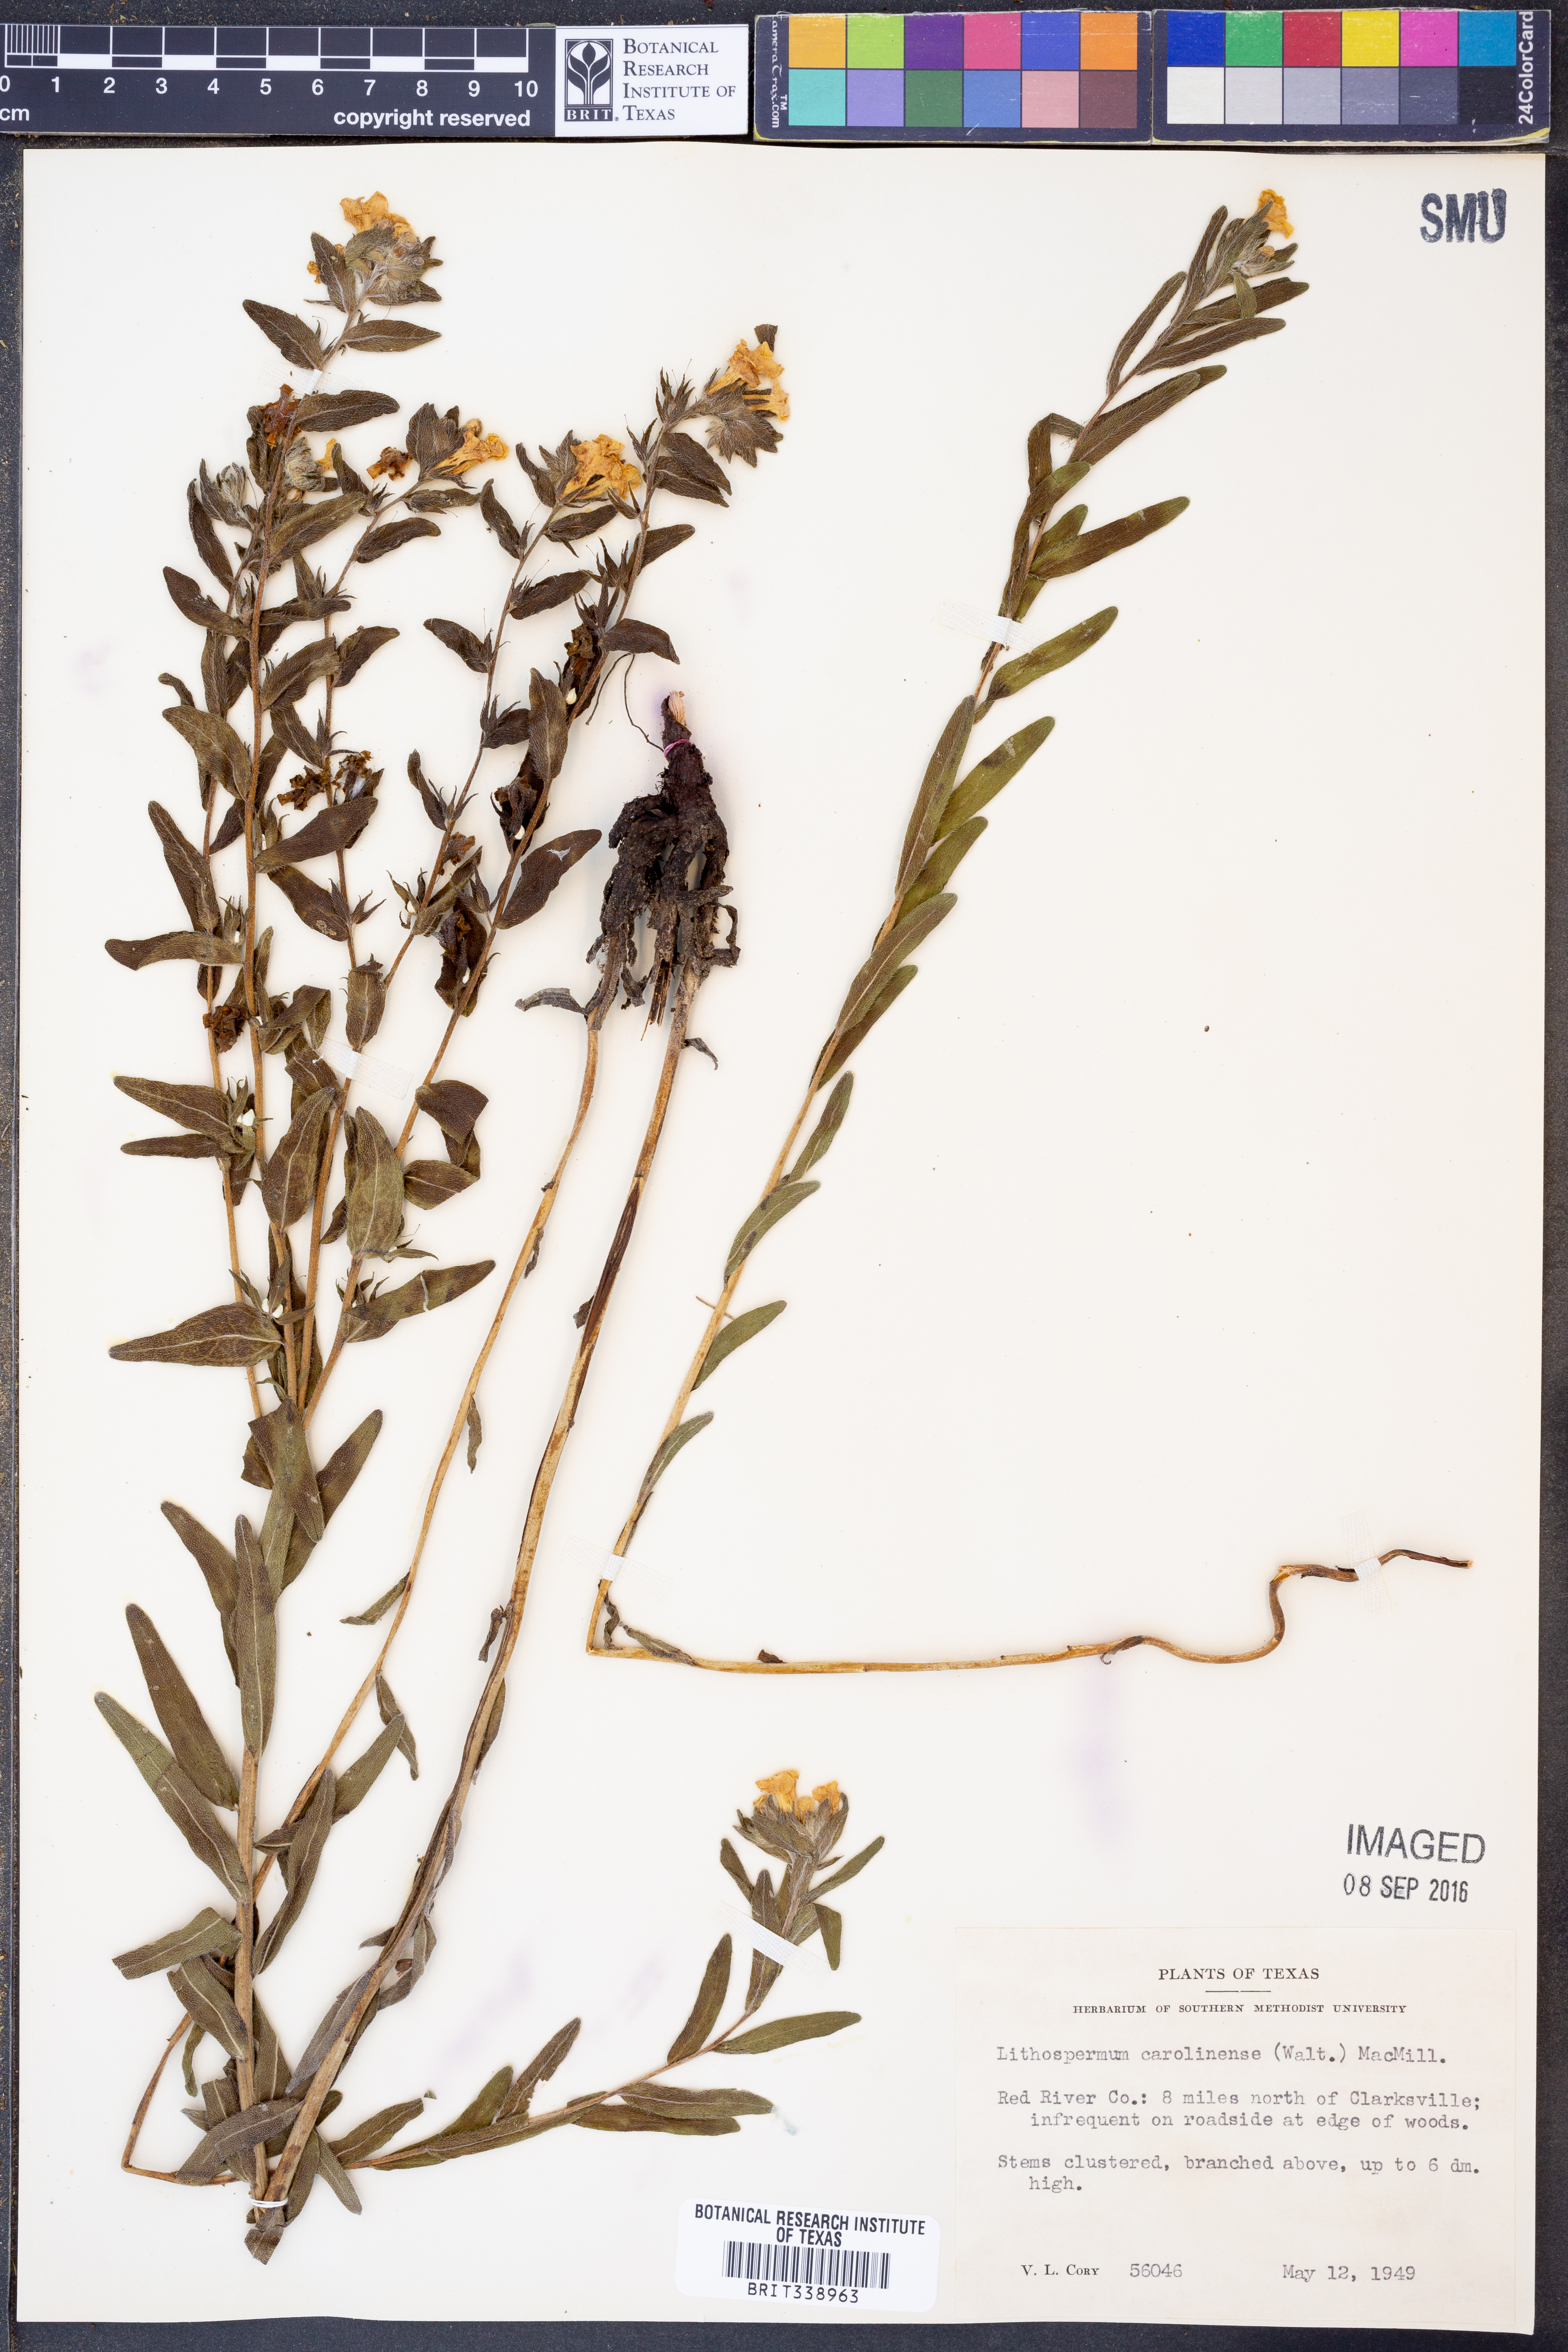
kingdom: Plantae
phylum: Tracheophyta
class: Magnoliopsida
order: Boraginales
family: Boraginaceae
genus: Lithospermum
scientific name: Lithospermum caroliniense
